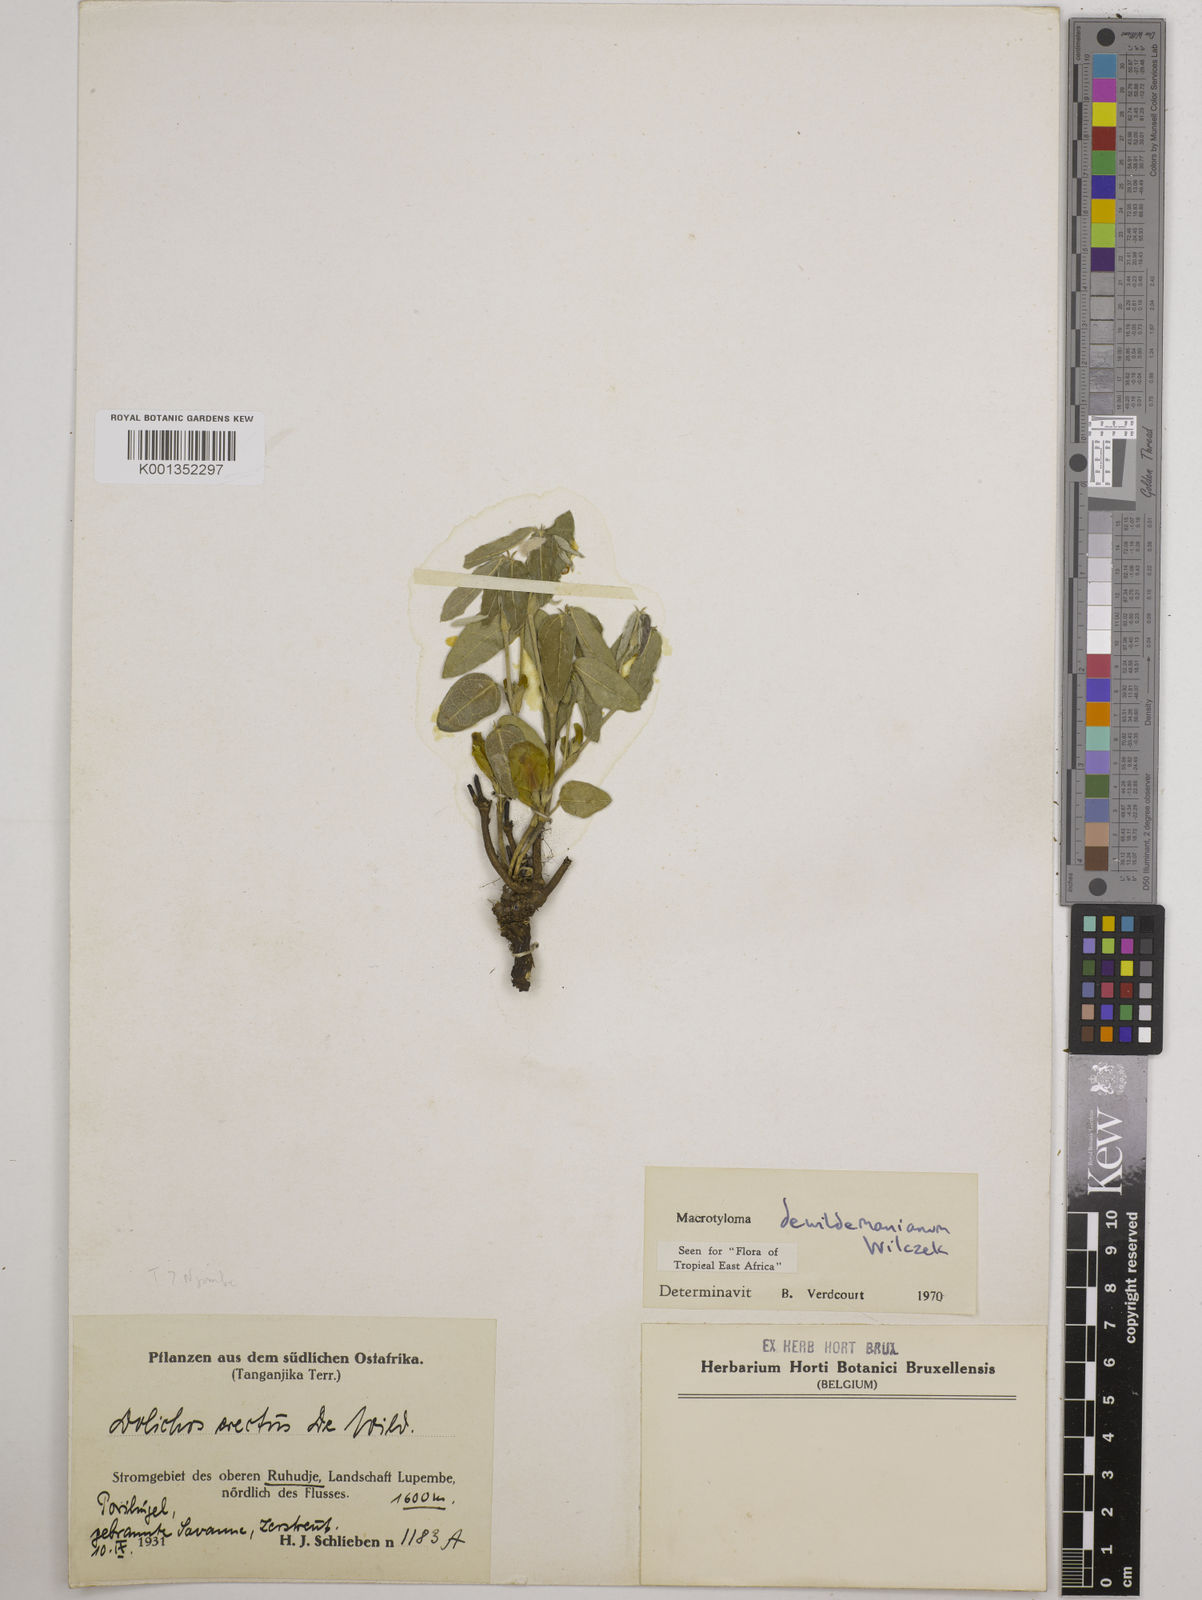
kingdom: Plantae
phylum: Tracheophyta
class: Magnoliopsida
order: Fabales
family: Fabaceae
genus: Macrotyloma
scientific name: Macrotyloma dewildemanianum
